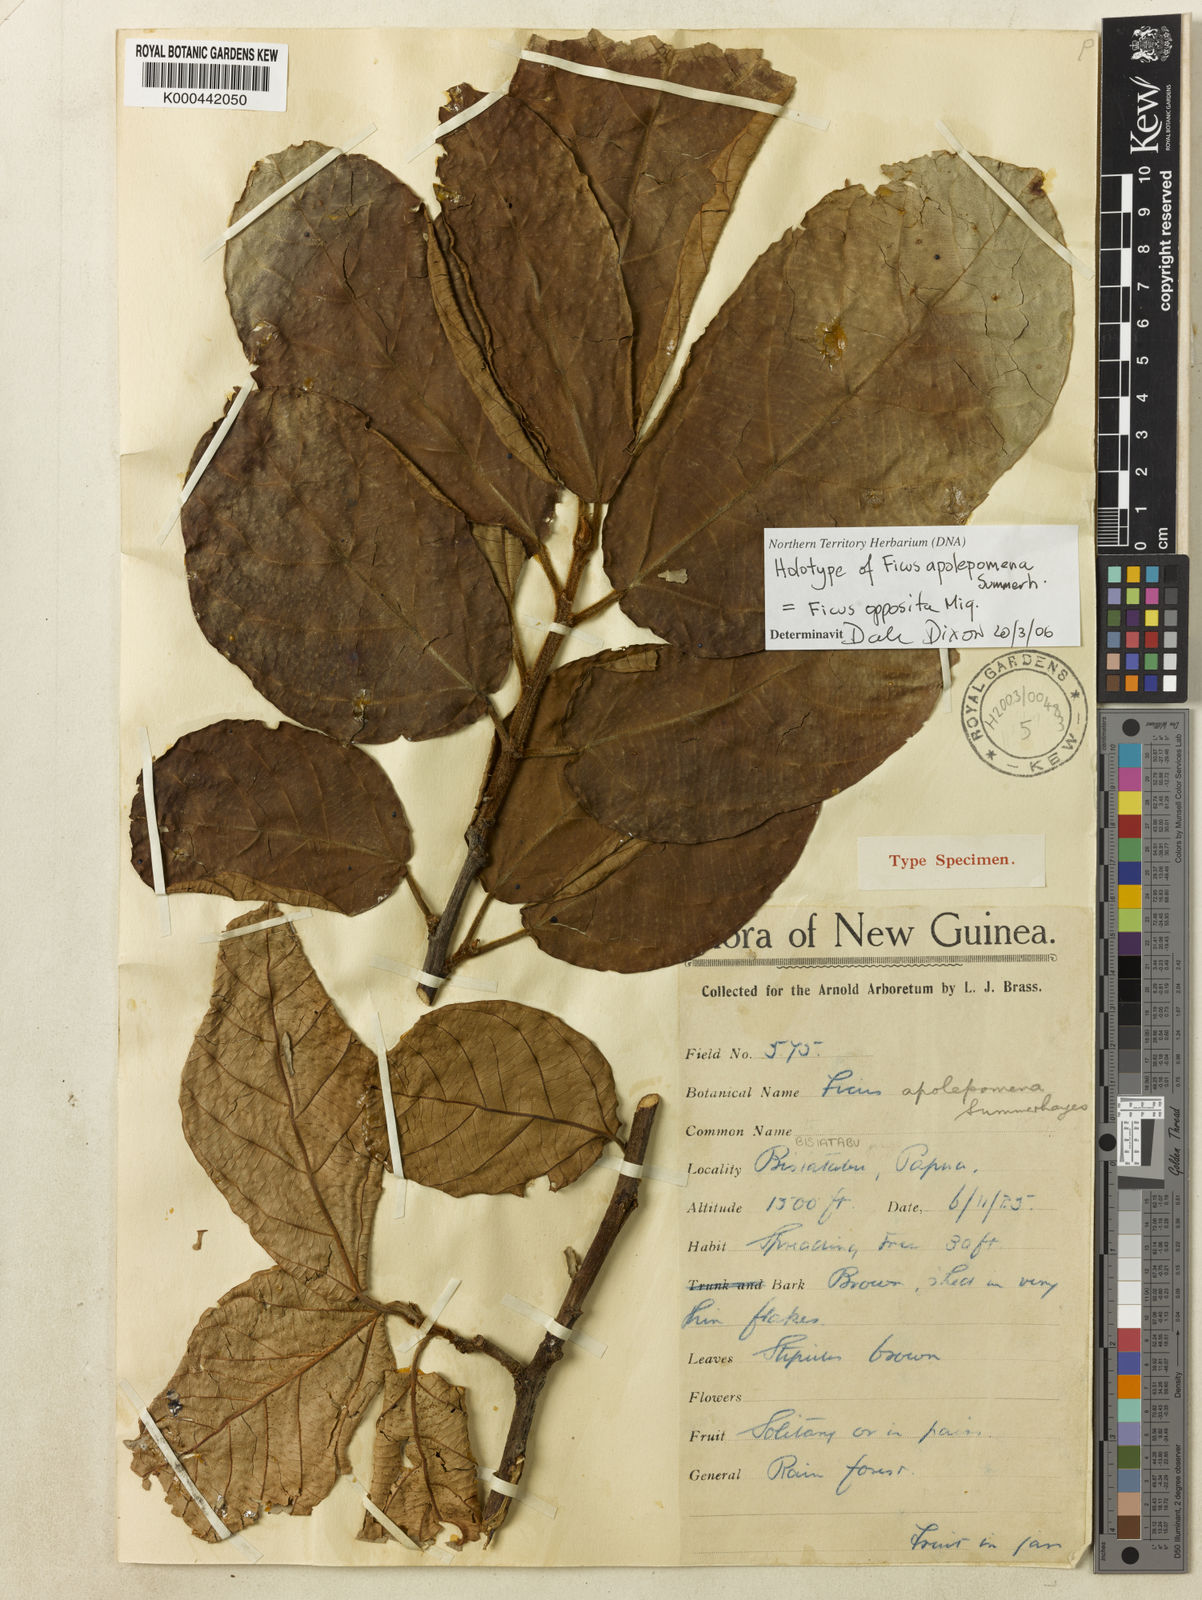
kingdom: Plantae
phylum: Tracheophyta
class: Magnoliopsida
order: Rosales
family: Moraceae
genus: Ficus
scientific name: Ficus opposita
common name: Figwood
